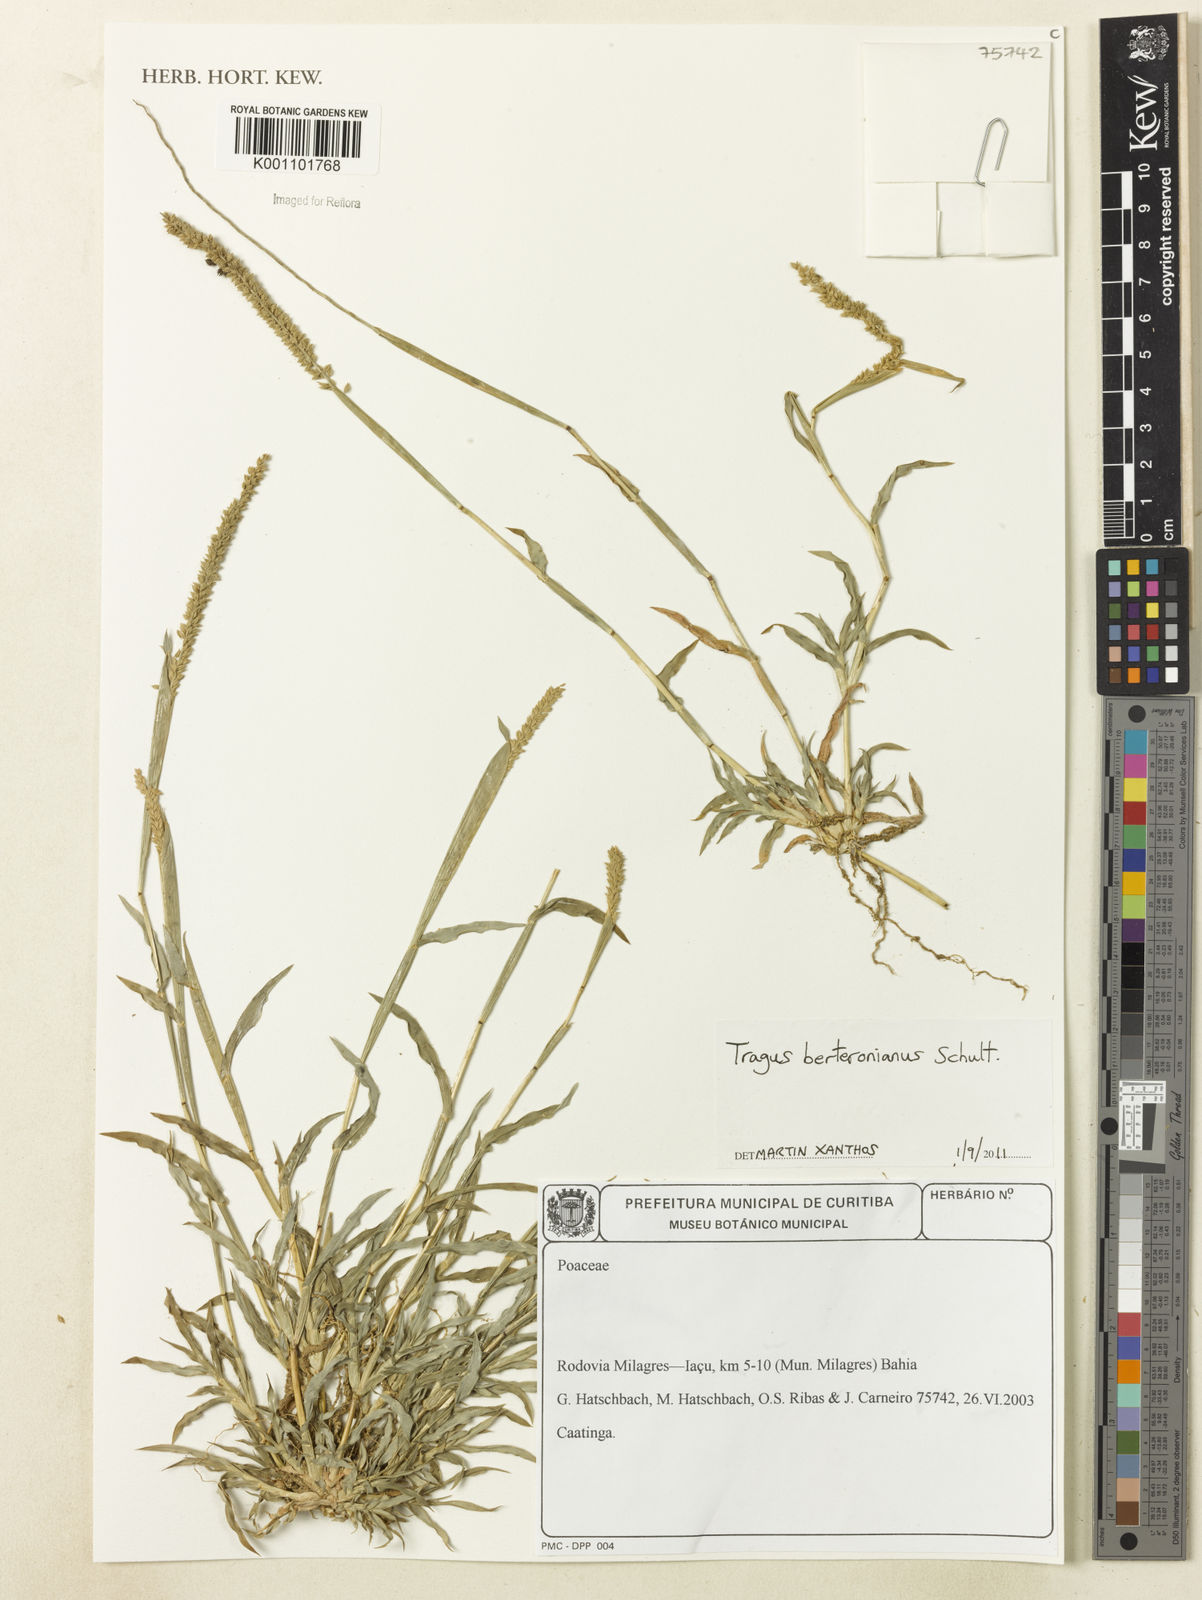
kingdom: Plantae
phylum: Tracheophyta
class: Liliopsida
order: Poales
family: Poaceae
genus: Tragus
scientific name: Tragus berteronianus
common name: African bur-grass
